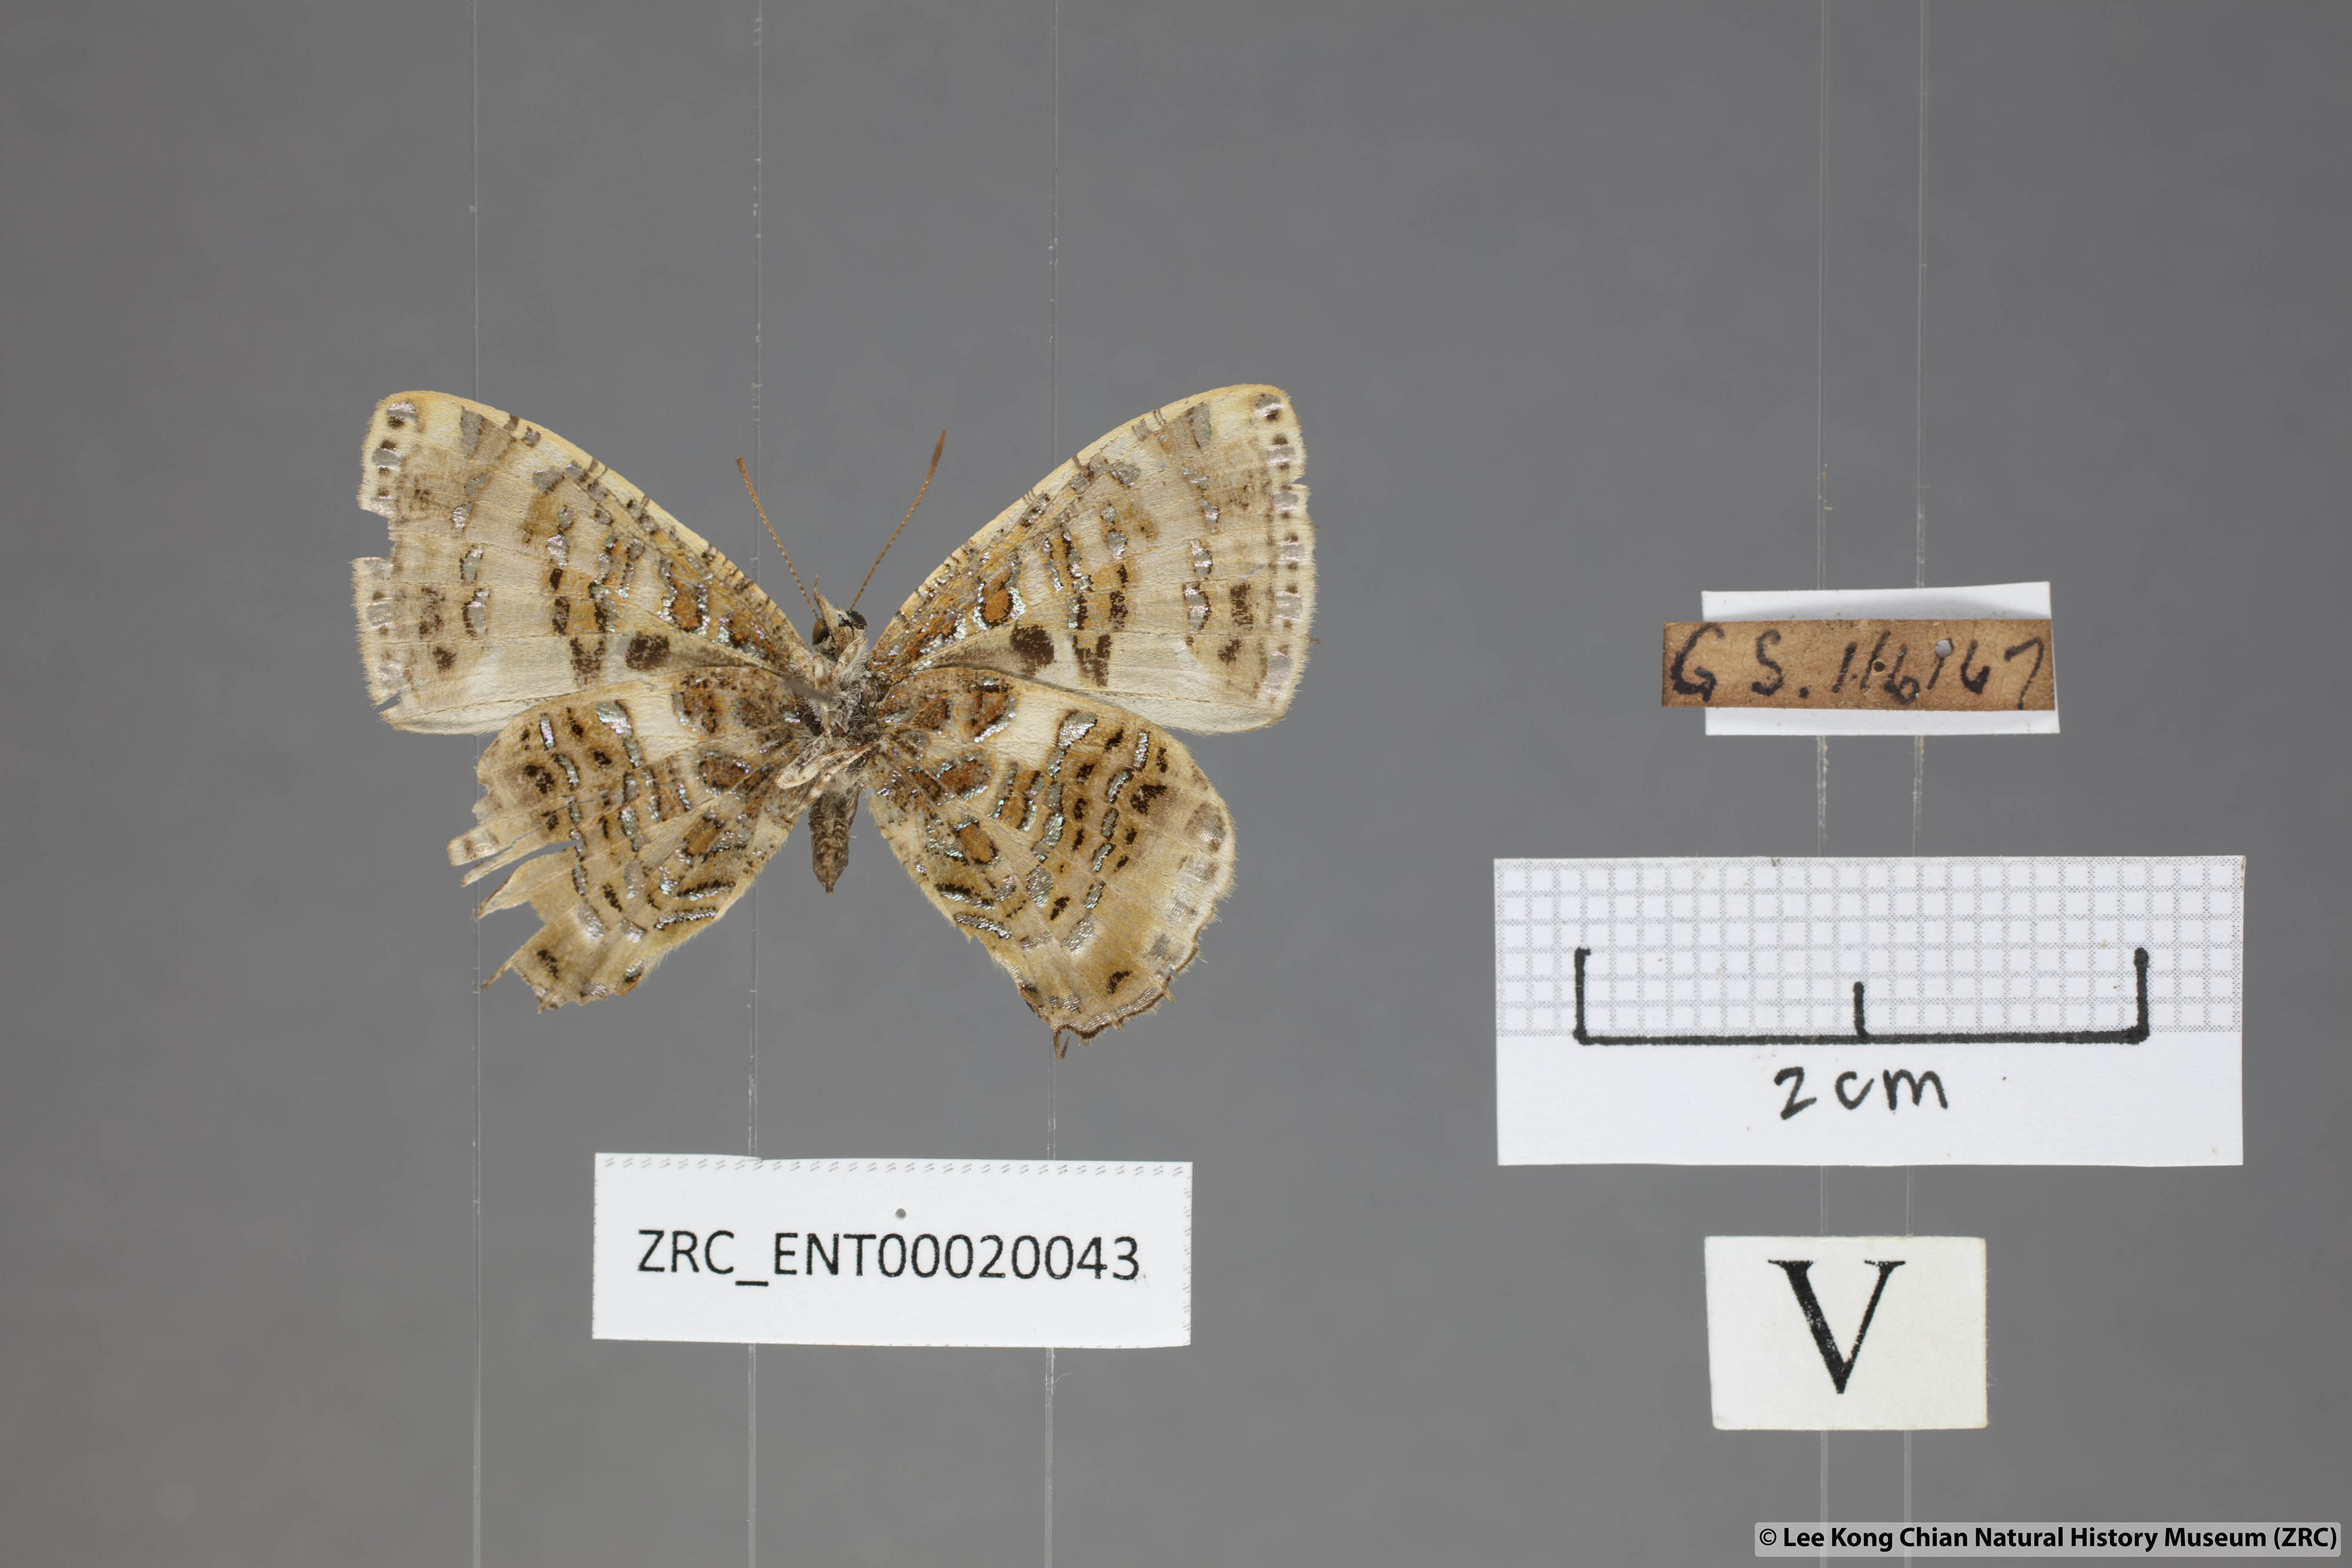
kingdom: Animalia
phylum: Arthropoda
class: Insecta
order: Lepidoptera
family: Lycaenidae
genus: Catapaecilma
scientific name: Catapaecilma major
